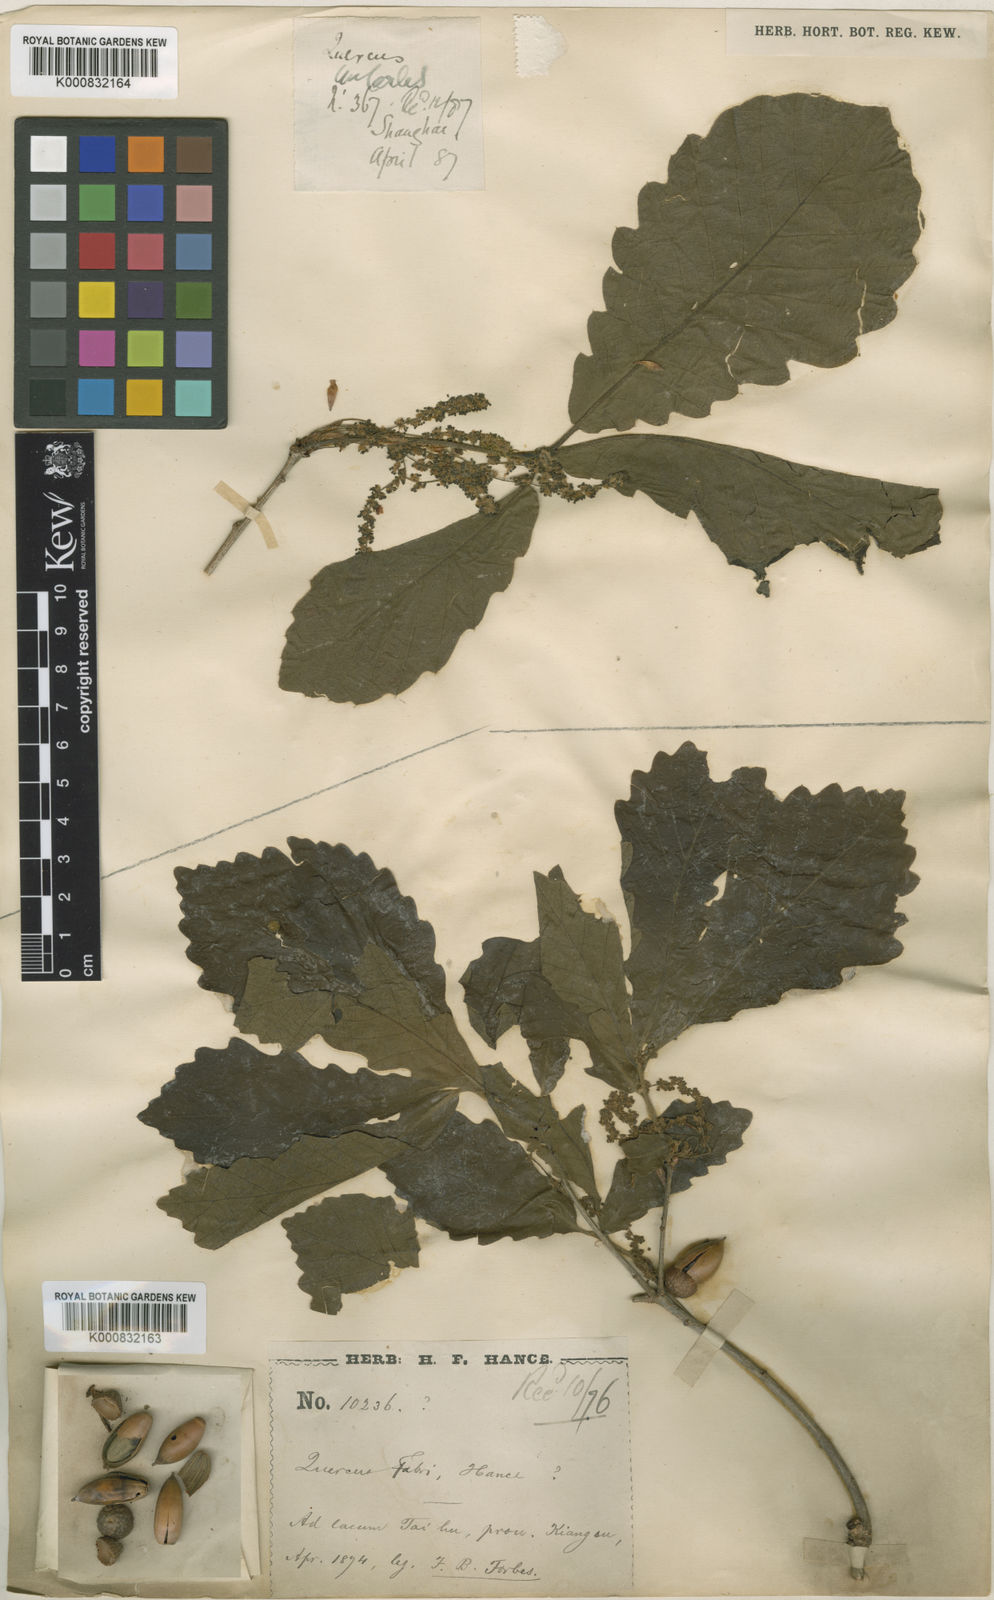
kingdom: Plantae
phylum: Tracheophyta
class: Magnoliopsida
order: Fagales
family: Fagaceae
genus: Quercus
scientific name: Quercus fabrei
